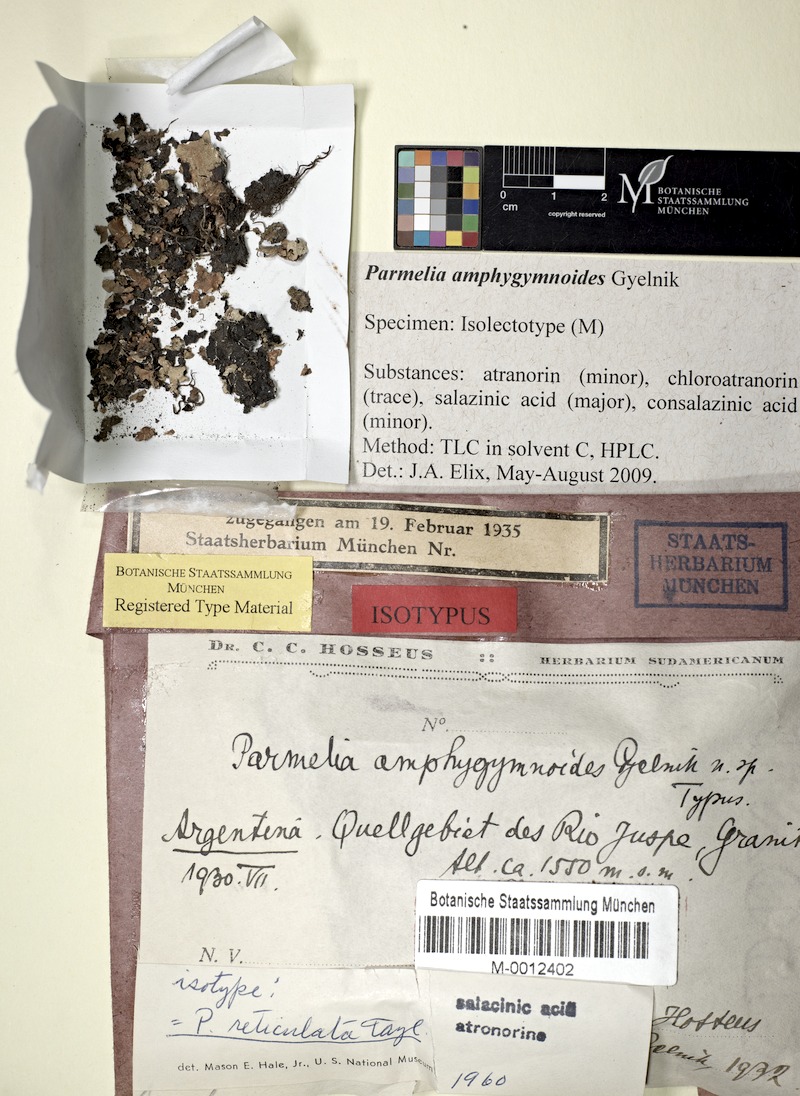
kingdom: Fungi
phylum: Ascomycota
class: Lecanoromycetes
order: Lecanorales
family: Parmeliaceae
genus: Parmotrema
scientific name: Parmotrema reticulatum
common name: Black sheet lichen
